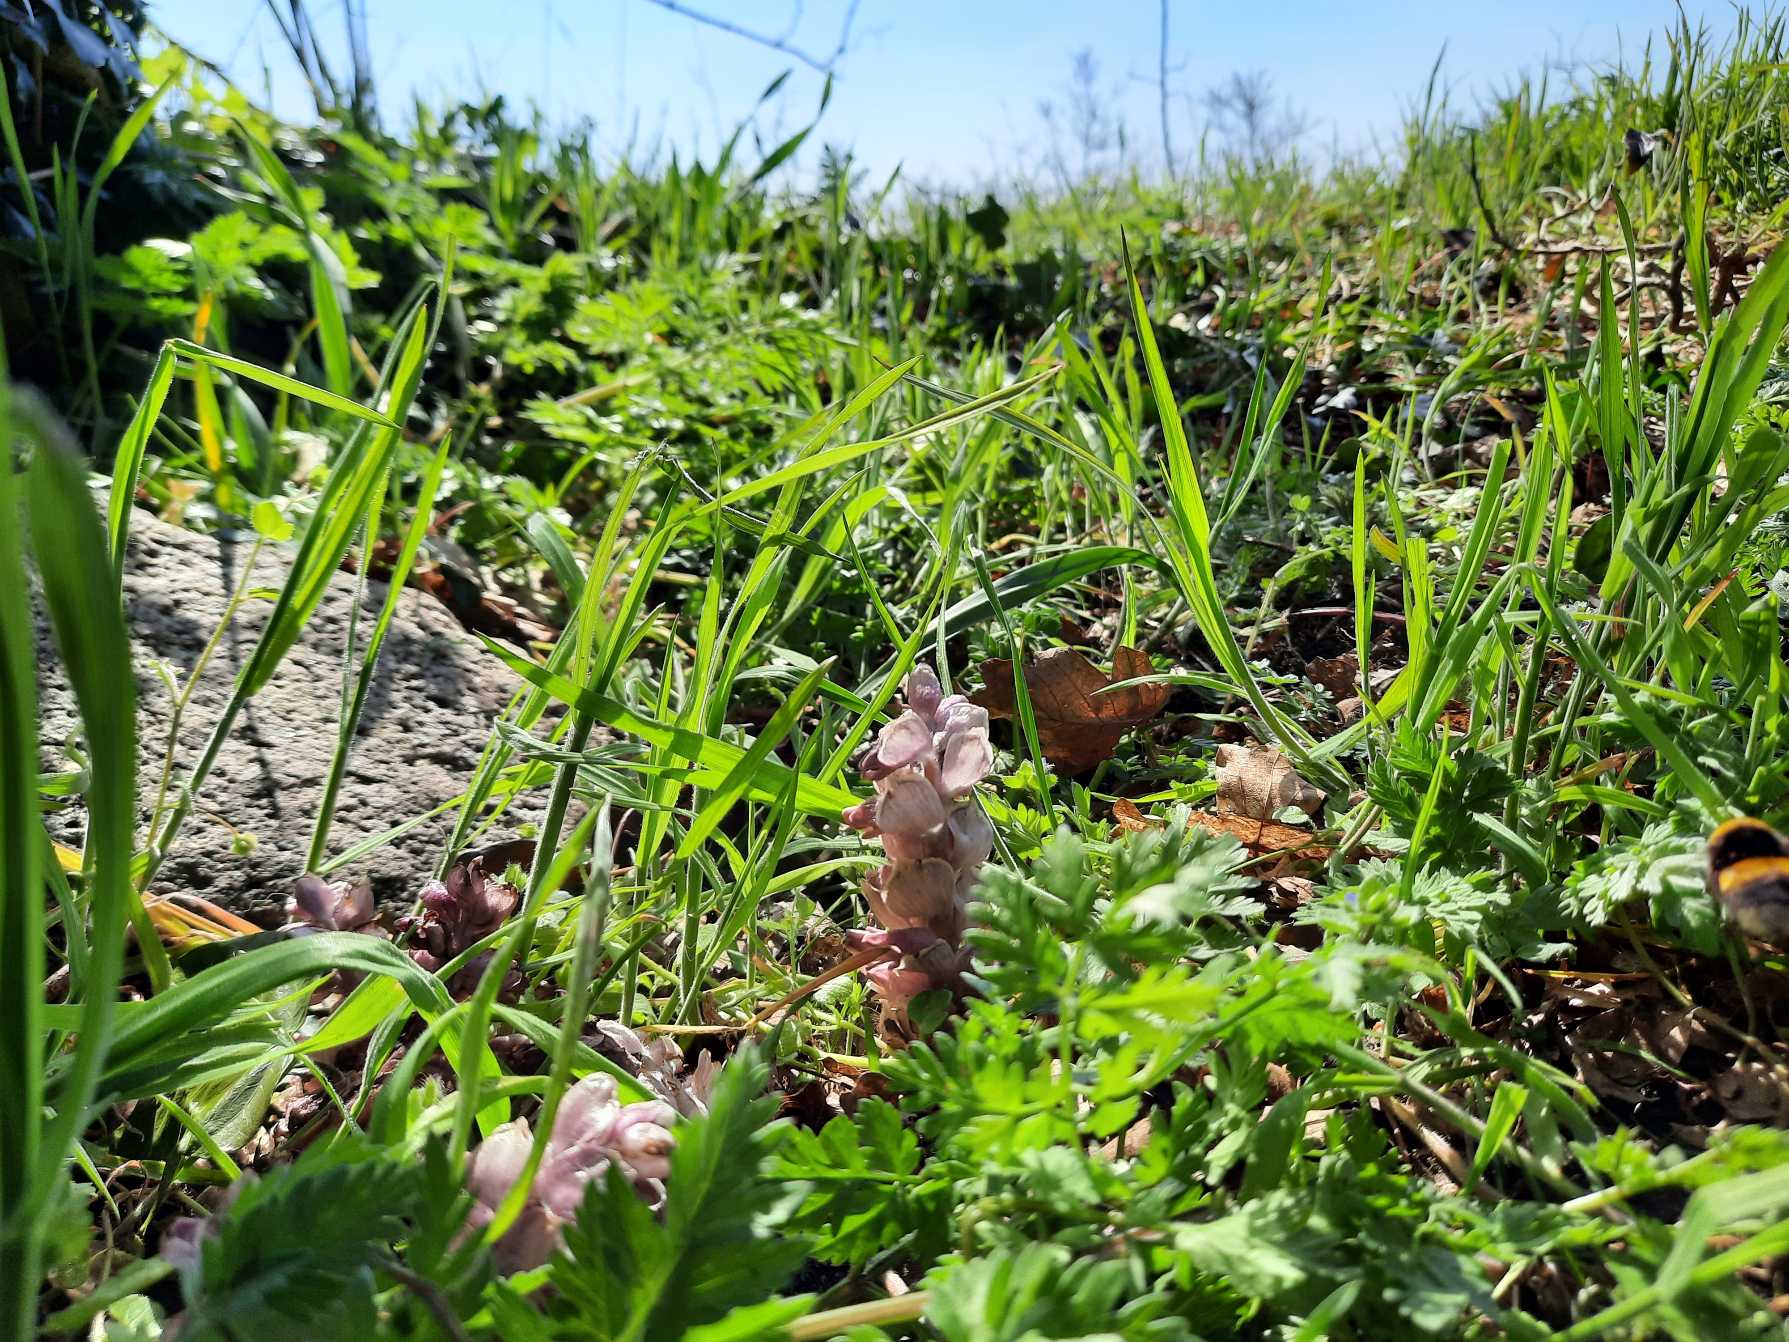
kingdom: Plantae
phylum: Tracheophyta
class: Magnoliopsida
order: Lamiales
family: Orobanchaceae
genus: Lathraea
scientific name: Lathraea squamaria
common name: Skælrod
